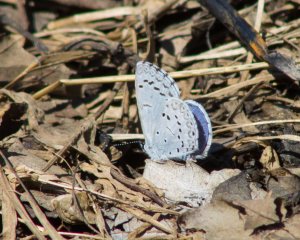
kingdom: Animalia
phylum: Arthropoda
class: Insecta
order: Lepidoptera
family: Lycaenidae
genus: Cyaniris
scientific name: Cyaniris neglecta
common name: Summer Azure
